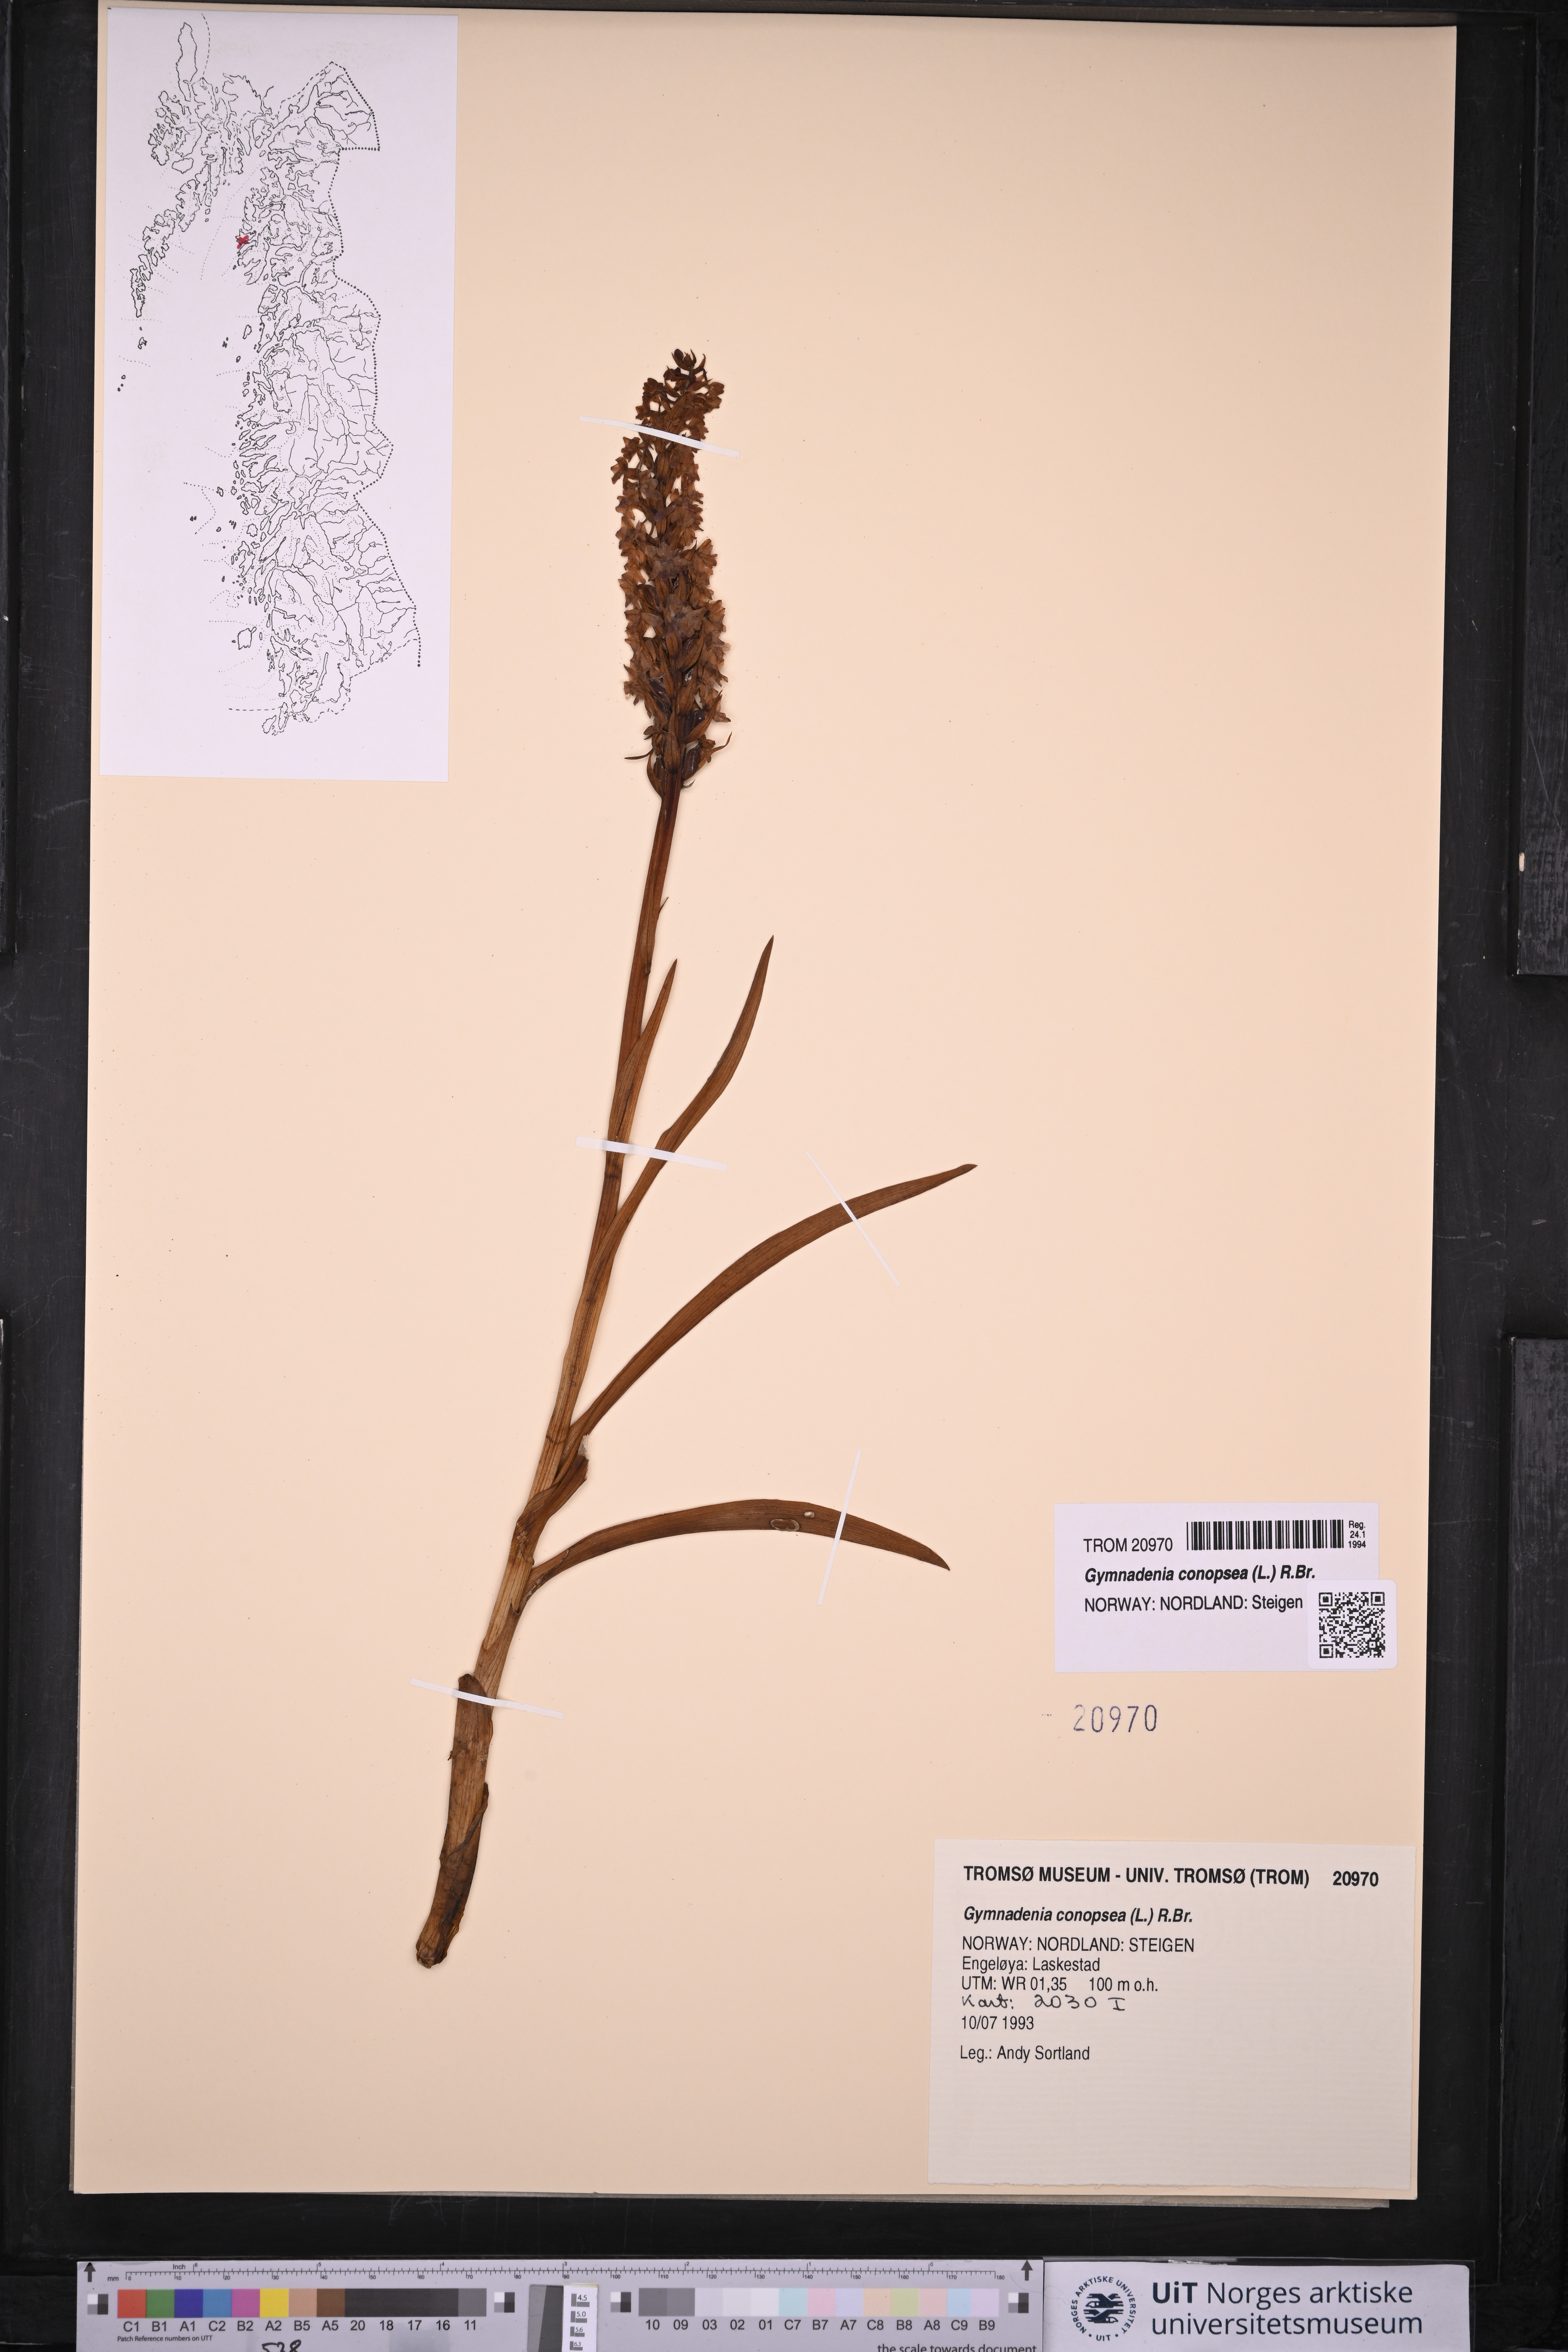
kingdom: Plantae
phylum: Tracheophyta
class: Liliopsida
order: Asparagales
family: Orchidaceae
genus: Gymnadenia
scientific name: Gymnadenia conopsea
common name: Fragrant orchid
